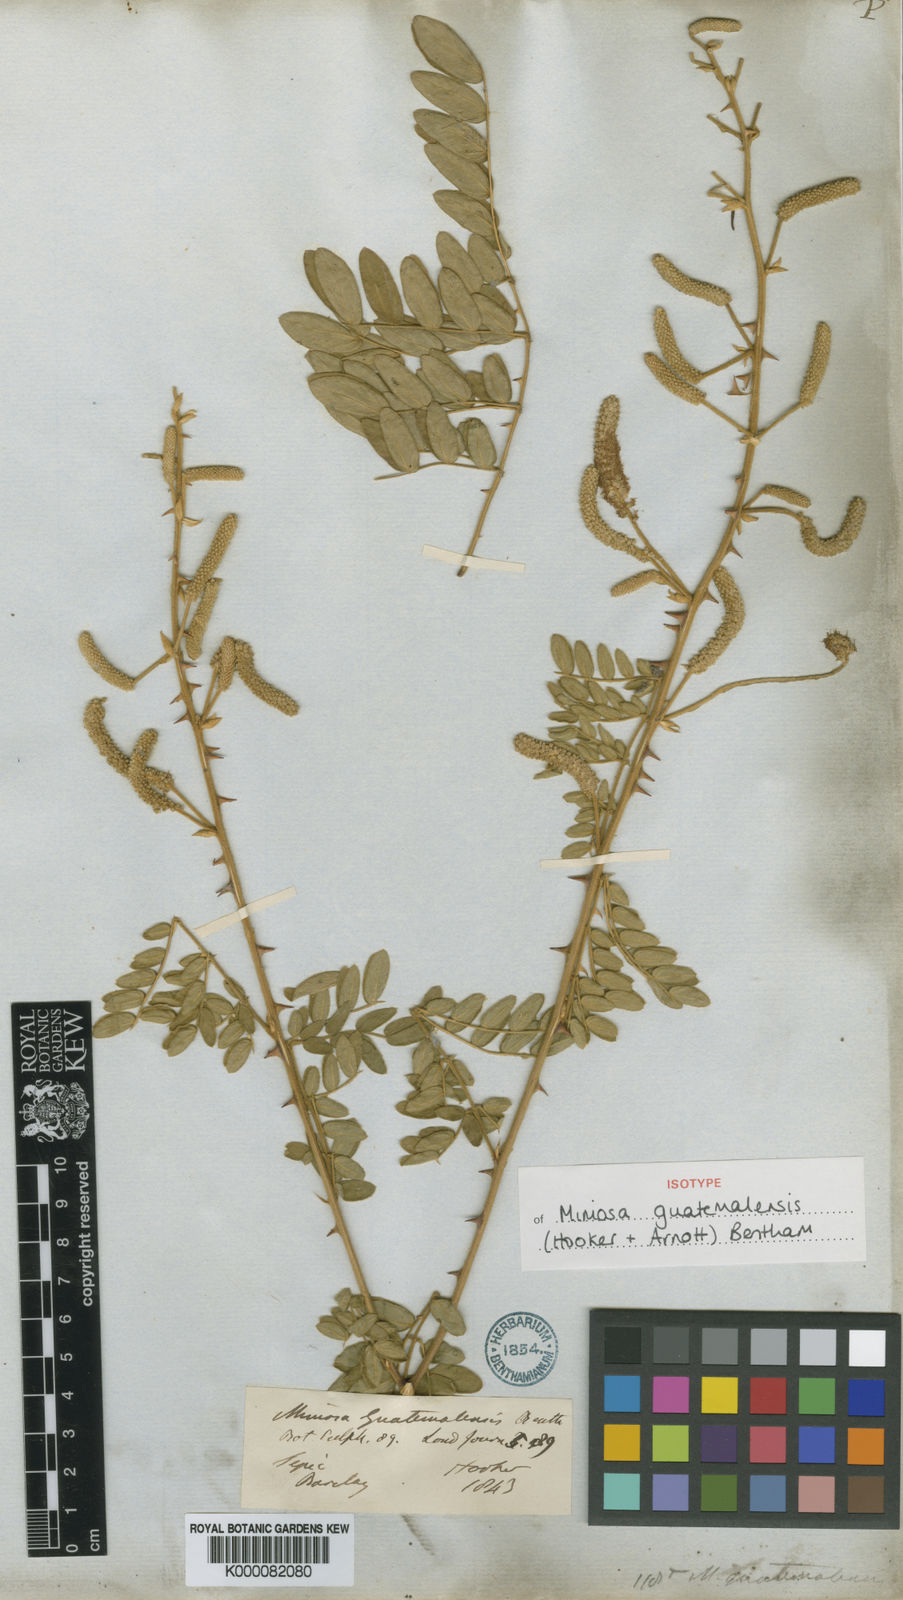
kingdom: Plantae
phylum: Tracheophyta
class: Magnoliopsida
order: Fabales
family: Fabaceae
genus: Mimosa
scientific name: Mimosa guatemalensis
